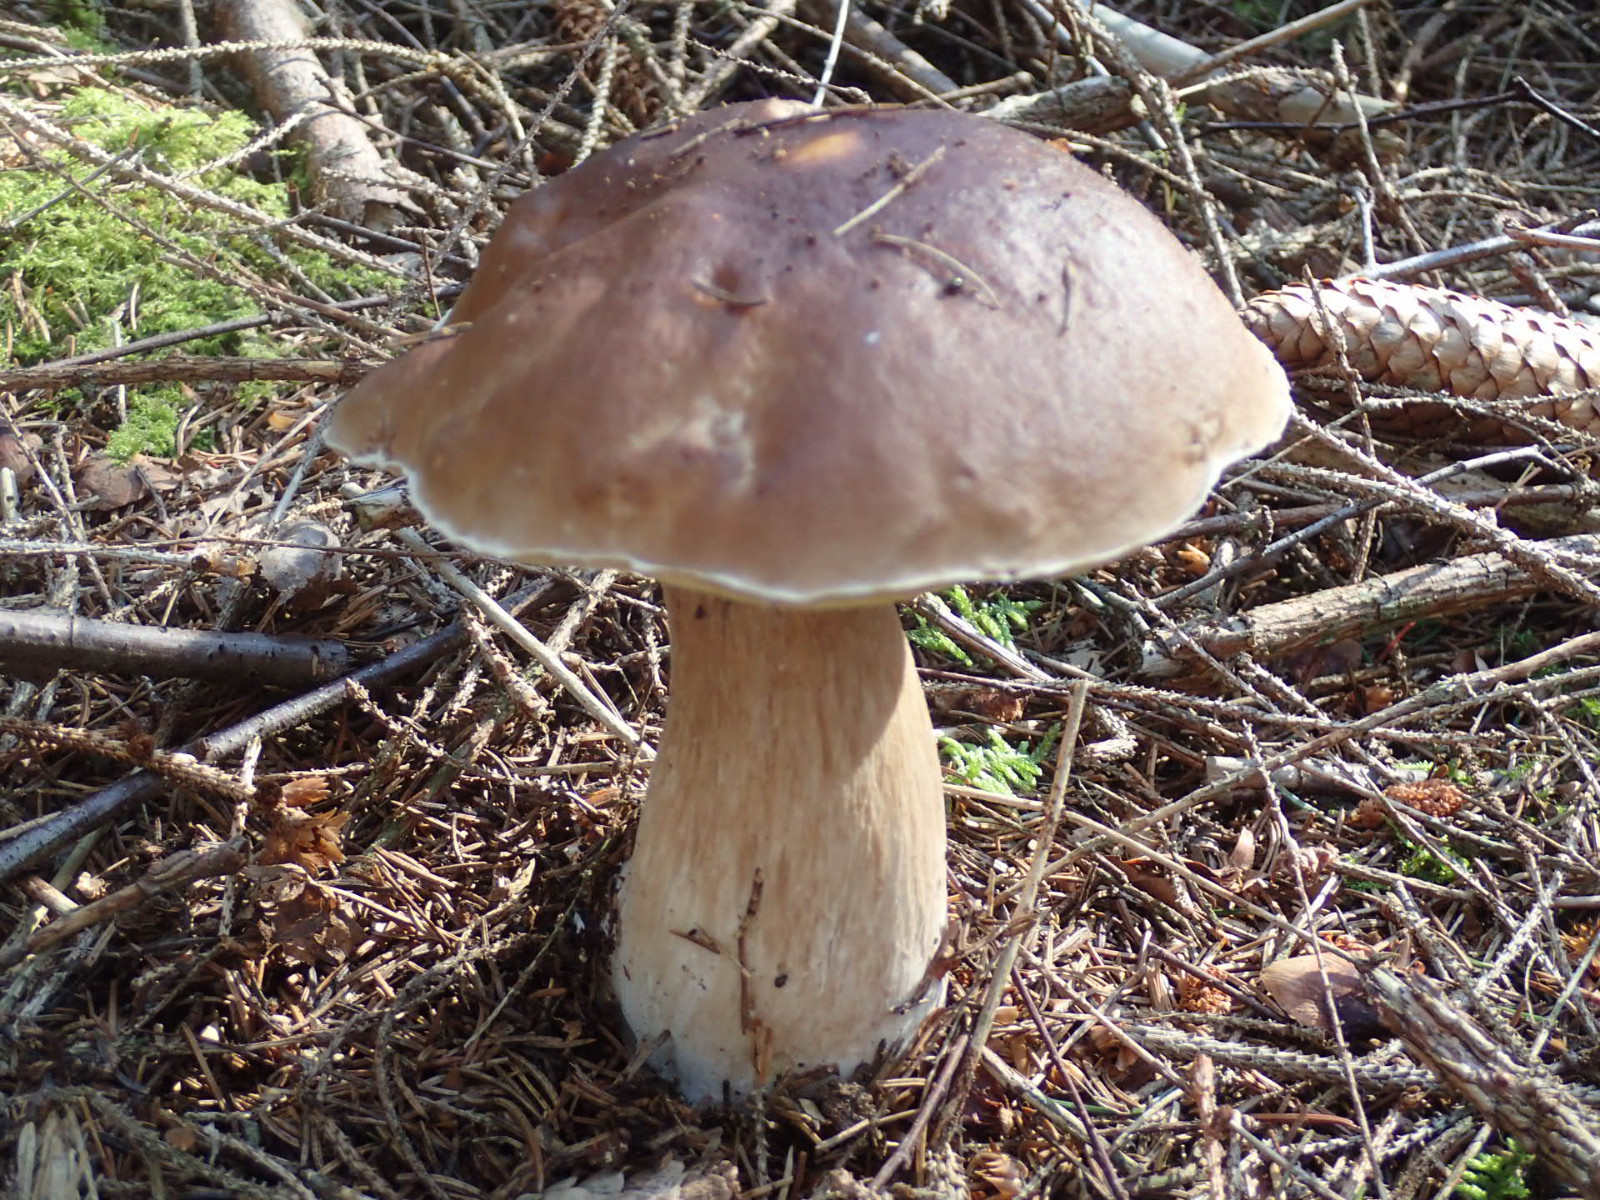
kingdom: Fungi
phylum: Basidiomycota
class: Agaricomycetes
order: Boletales
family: Boletaceae
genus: Boletus
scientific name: Boletus edulis
